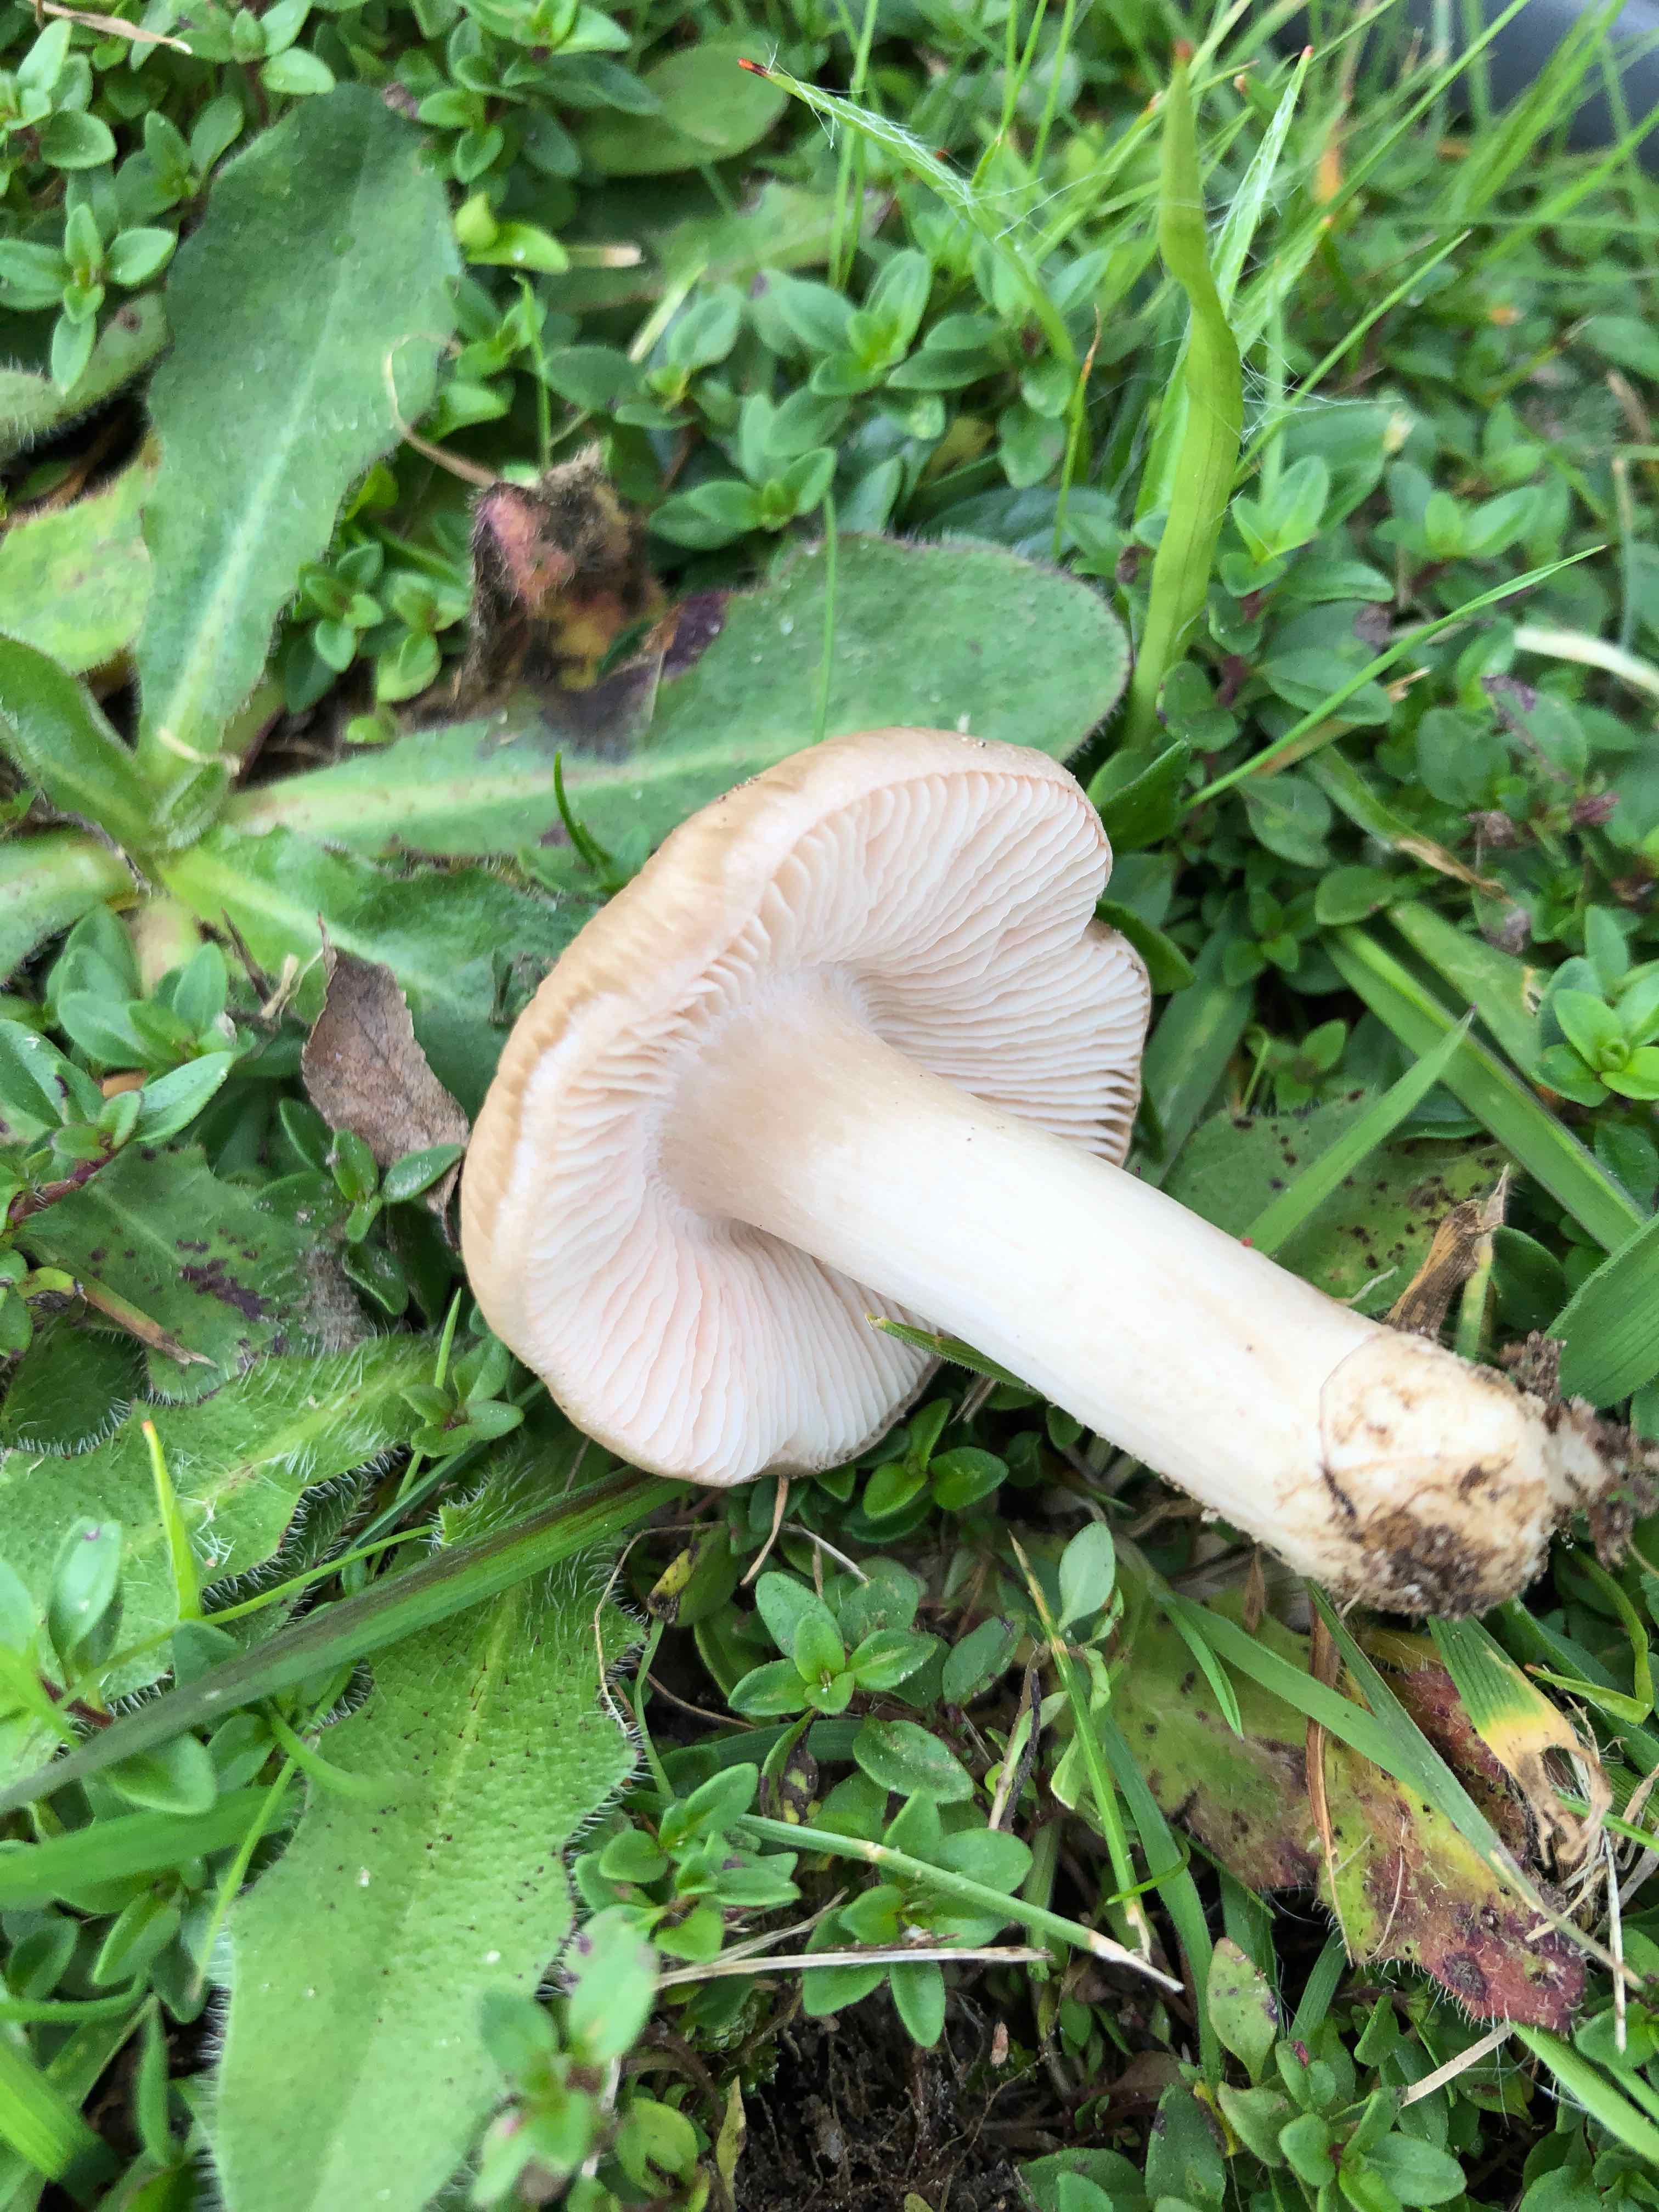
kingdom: Fungi
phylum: Basidiomycota
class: Agaricomycetes
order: Agaricales
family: Entolomataceae
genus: Entoloma
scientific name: Entoloma prunuloides
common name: mel-rødblad
